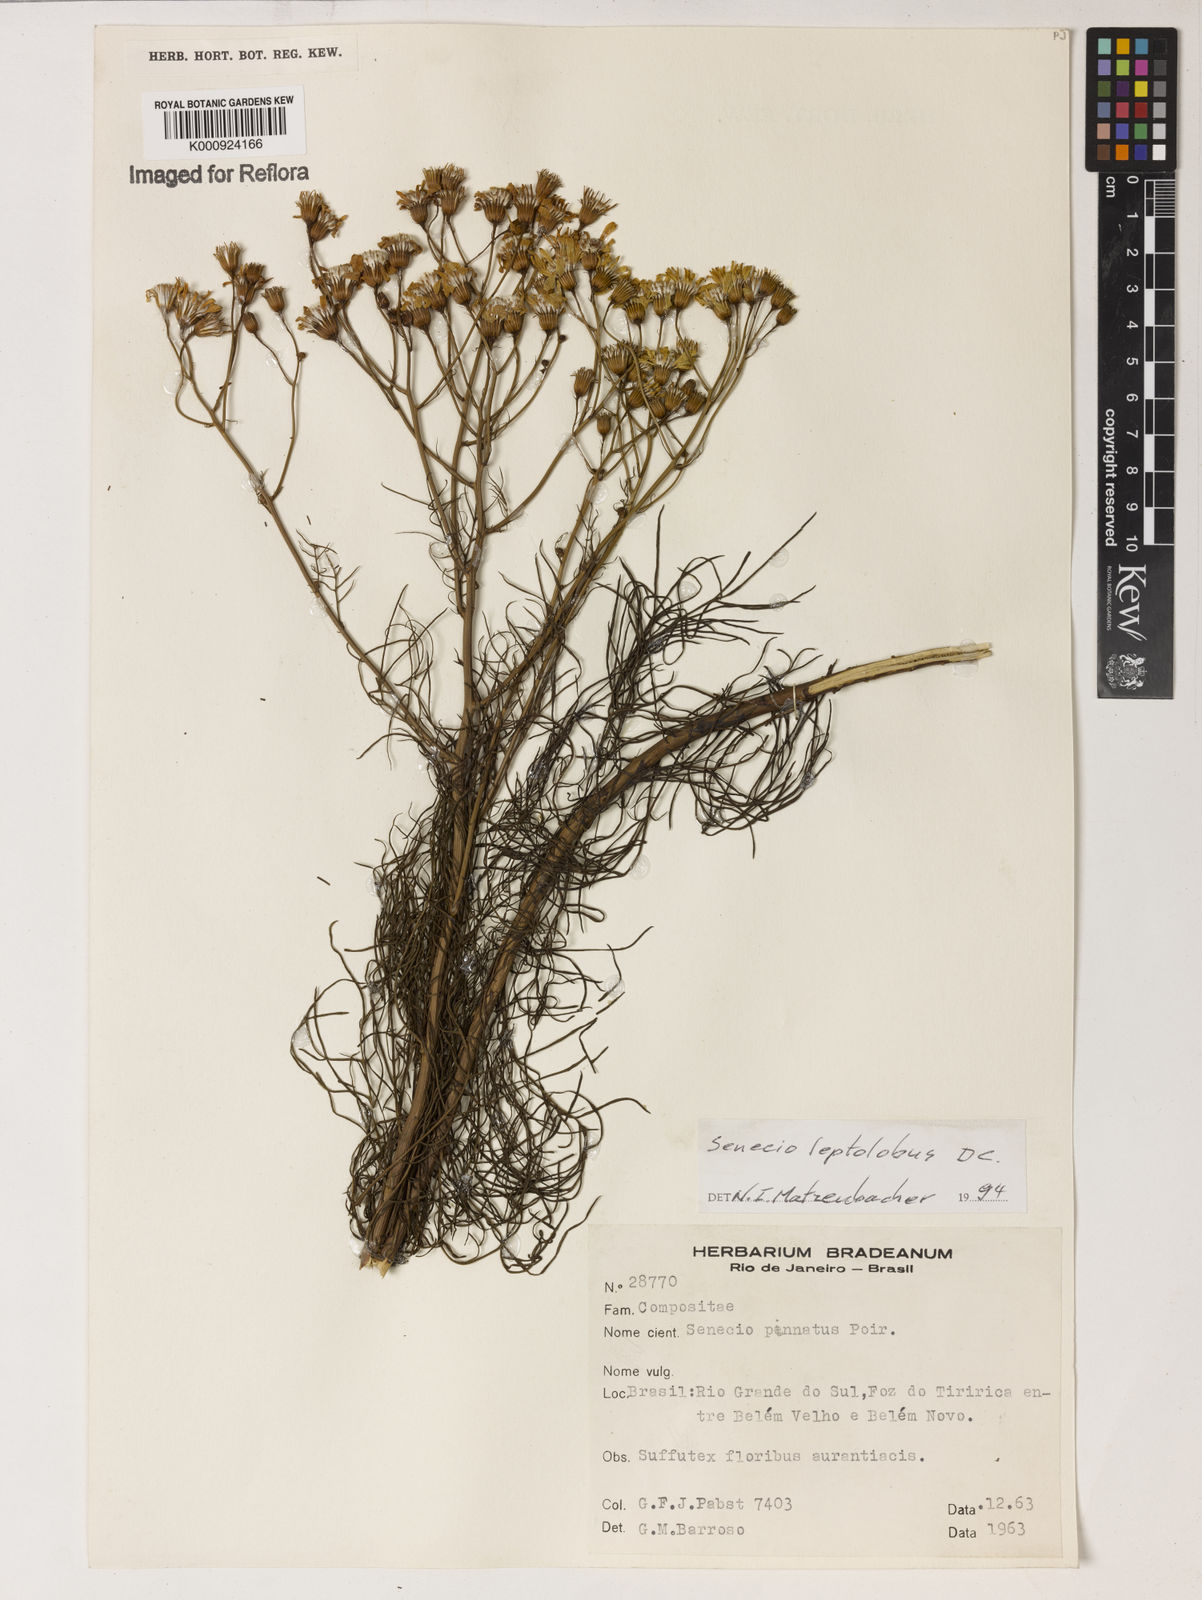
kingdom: Plantae
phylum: Tracheophyta
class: Magnoliopsida
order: Asterales
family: Asteraceae
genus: Senecio
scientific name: Senecio leptolobus
